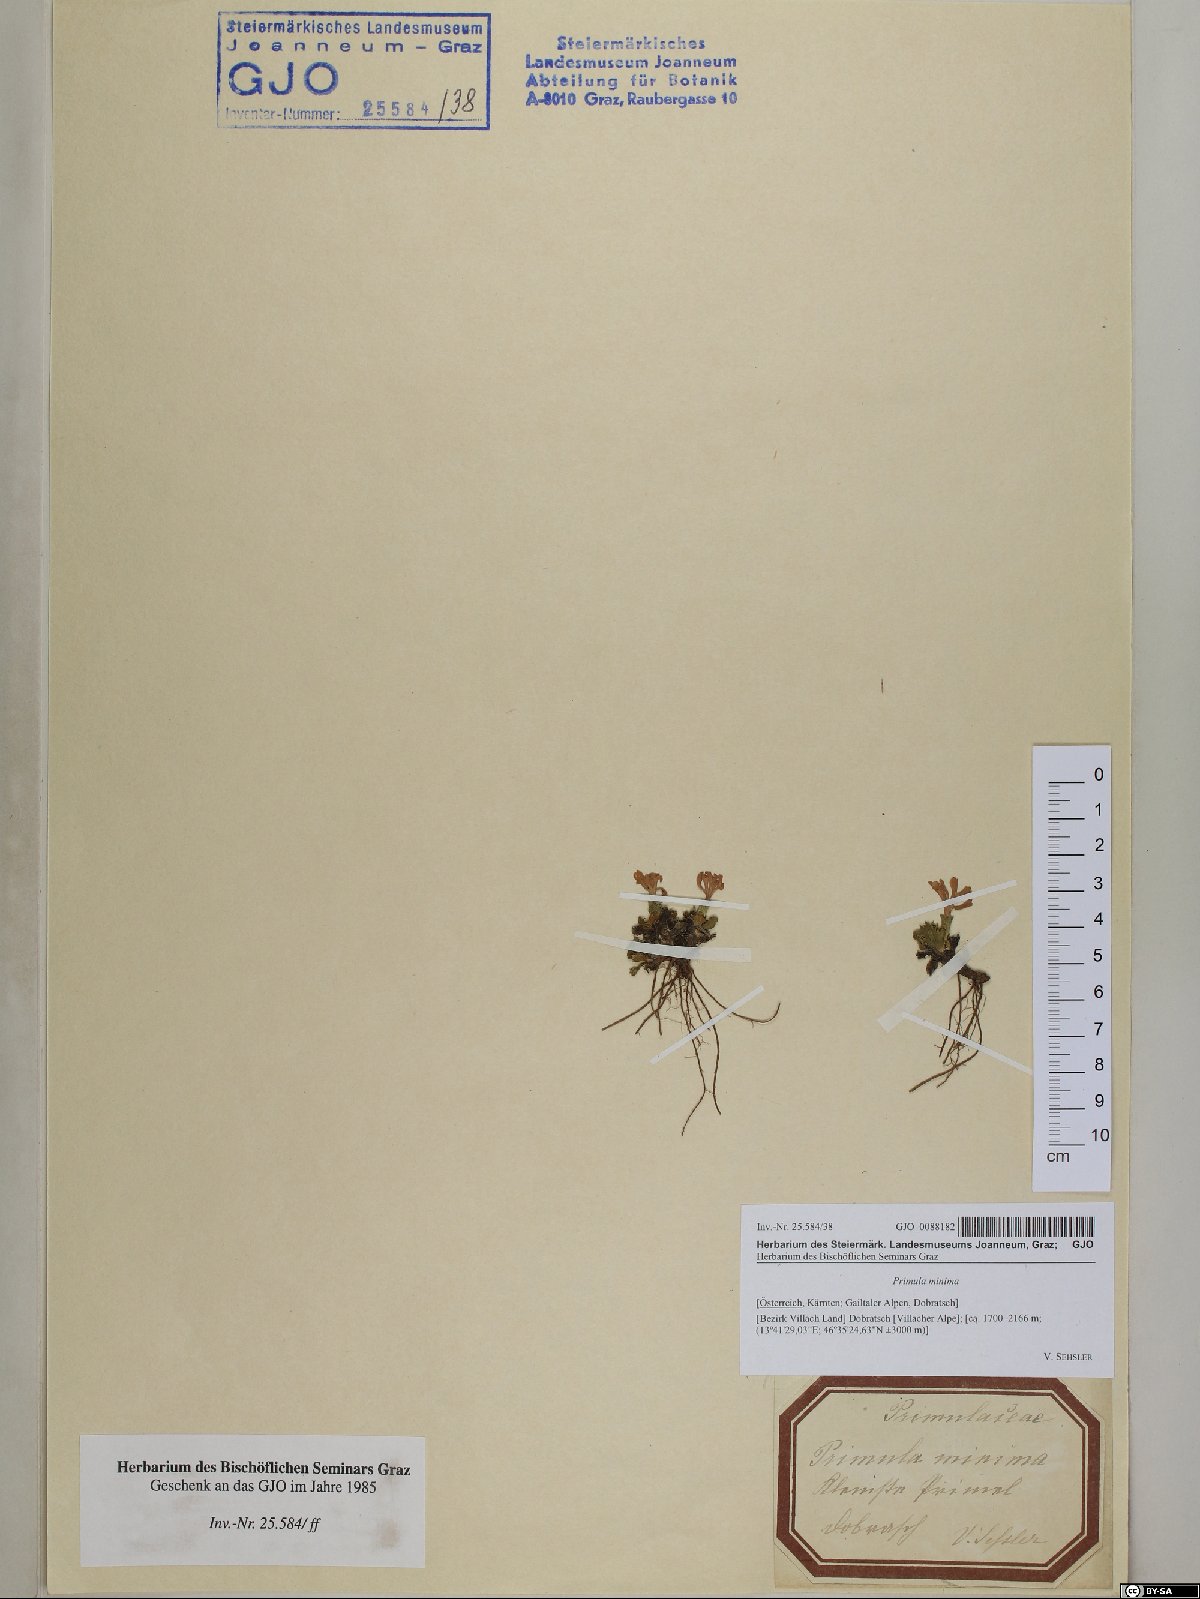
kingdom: Plantae
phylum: Tracheophyta
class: Magnoliopsida
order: Ericales
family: Primulaceae
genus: Primula
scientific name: Primula minima
